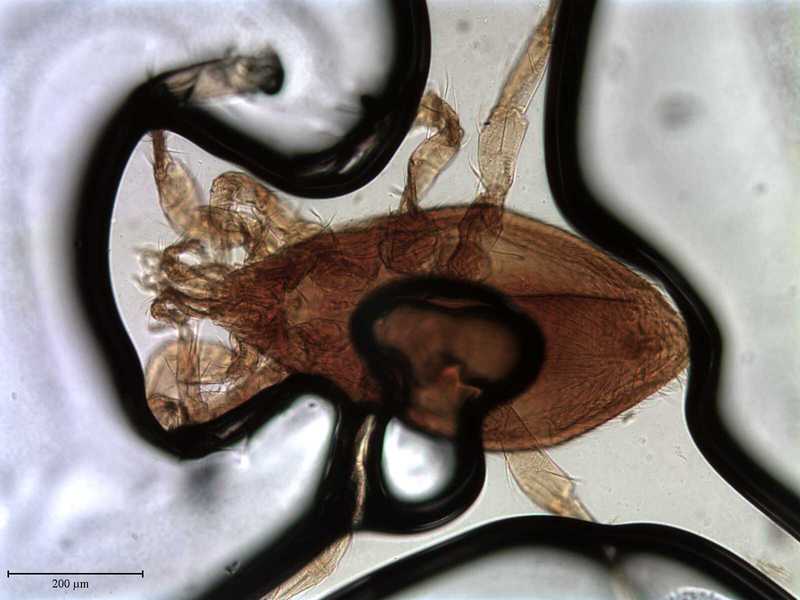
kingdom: Animalia
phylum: Arthropoda
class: Arachnida
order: Mesostigmata
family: Parasitidae
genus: Haemogamasus
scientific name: Haemogamasus
